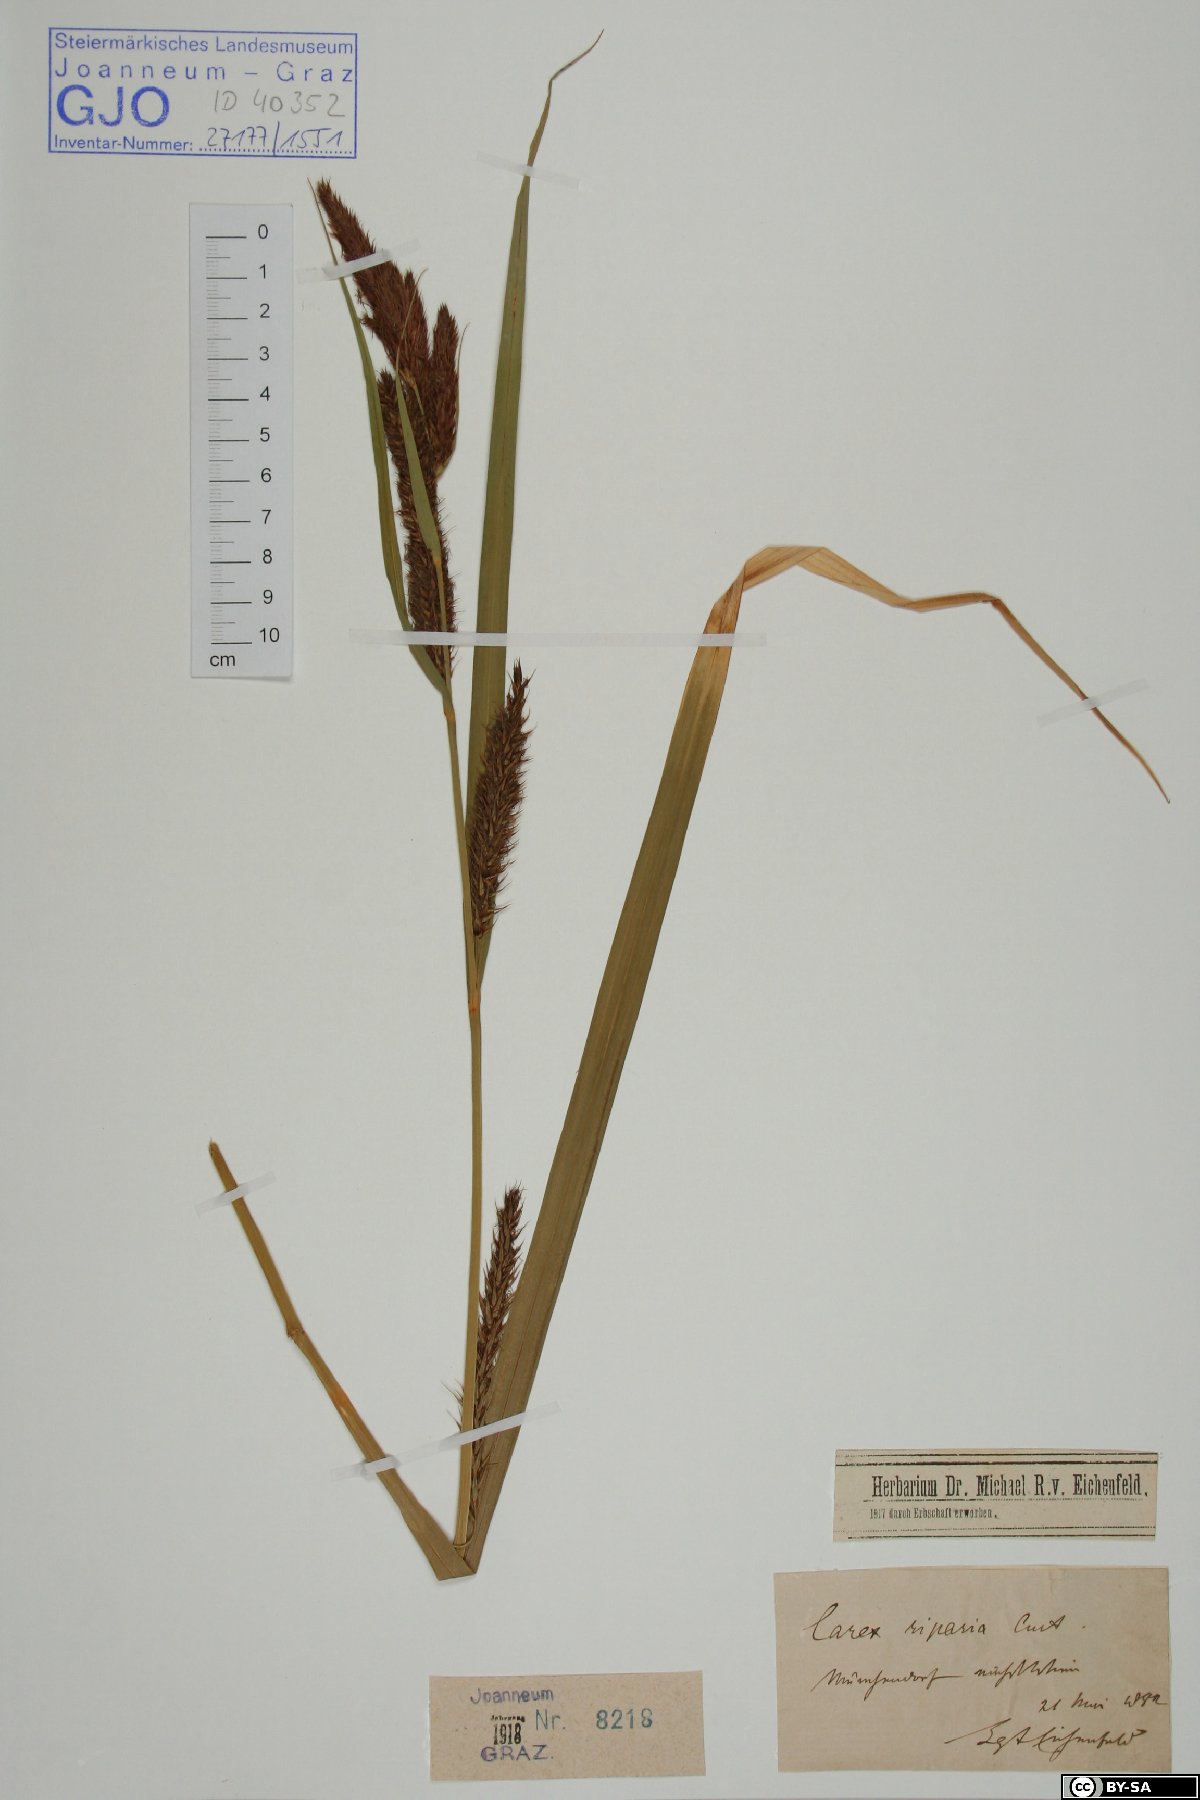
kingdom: Plantae
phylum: Tracheophyta
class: Liliopsida
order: Poales
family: Cyperaceae
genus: Carex
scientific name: Carex riparia
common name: Greater pond-sedge
